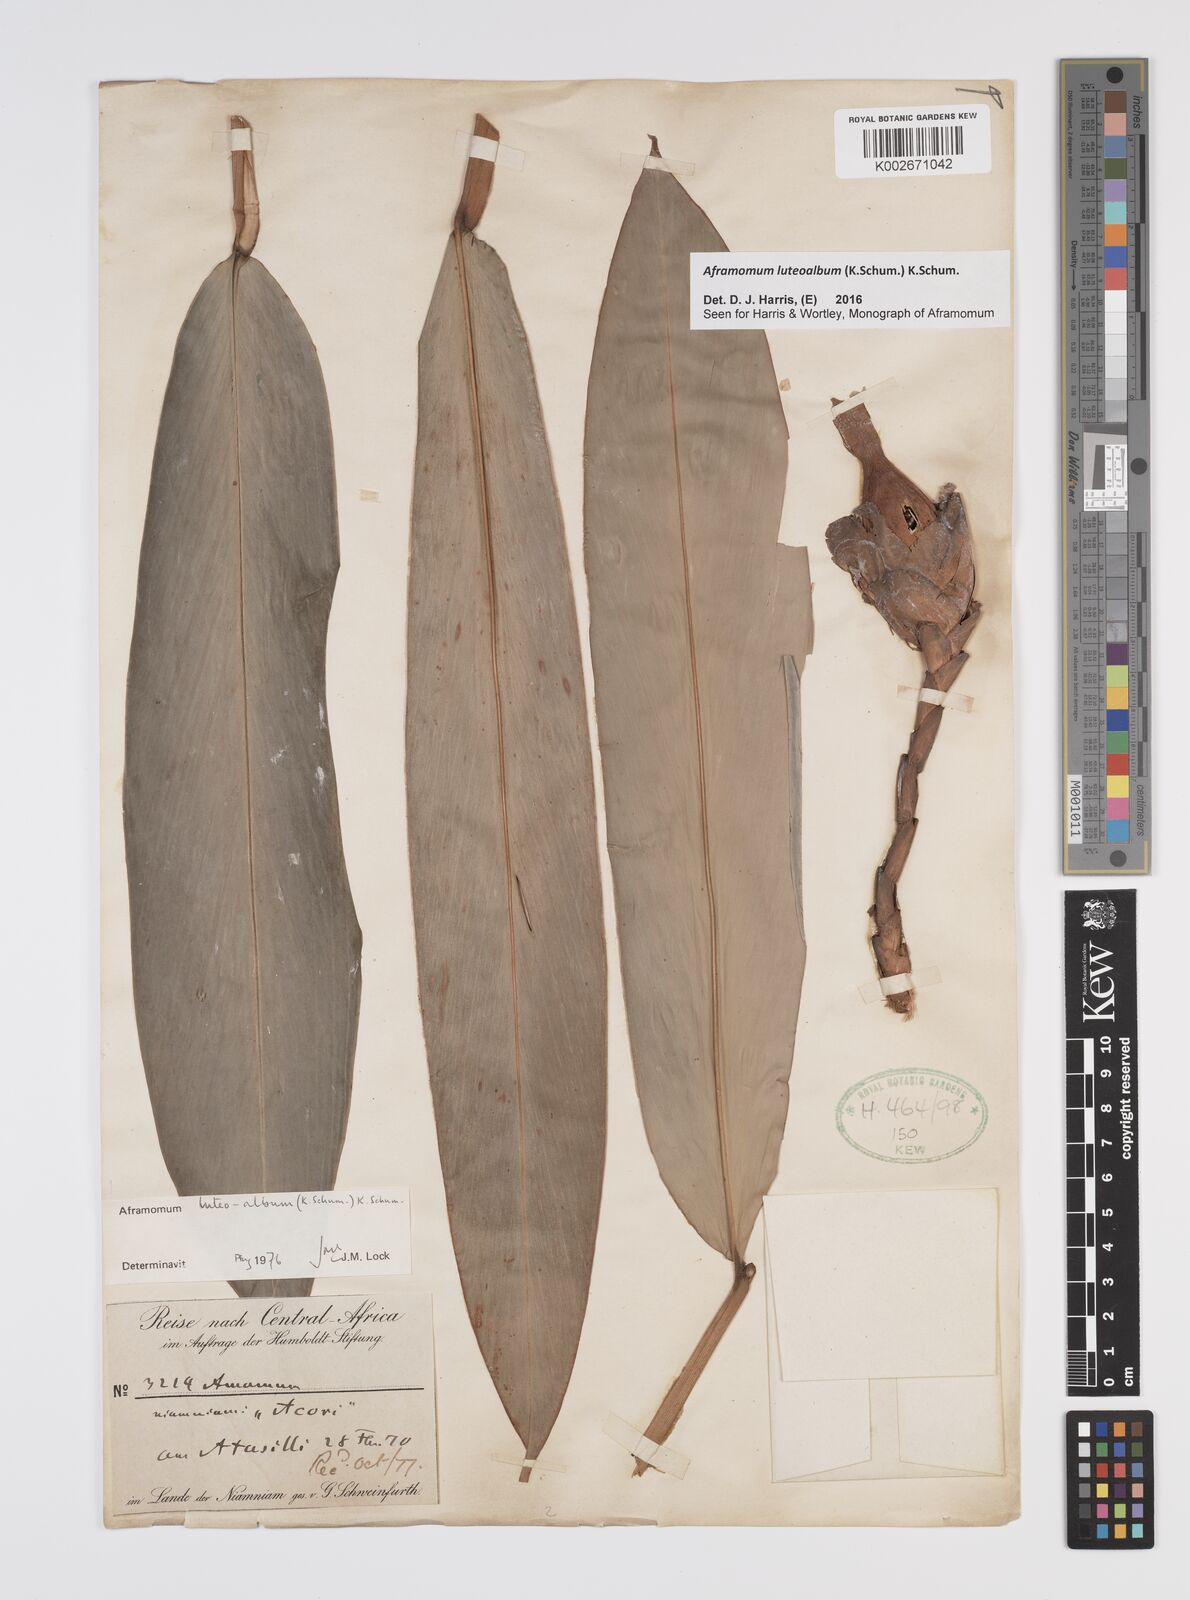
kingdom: Plantae
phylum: Tracheophyta
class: Liliopsida
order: Zingiberales
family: Zingiberaceae
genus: Aframomum
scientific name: Aframomum luteoalbum
